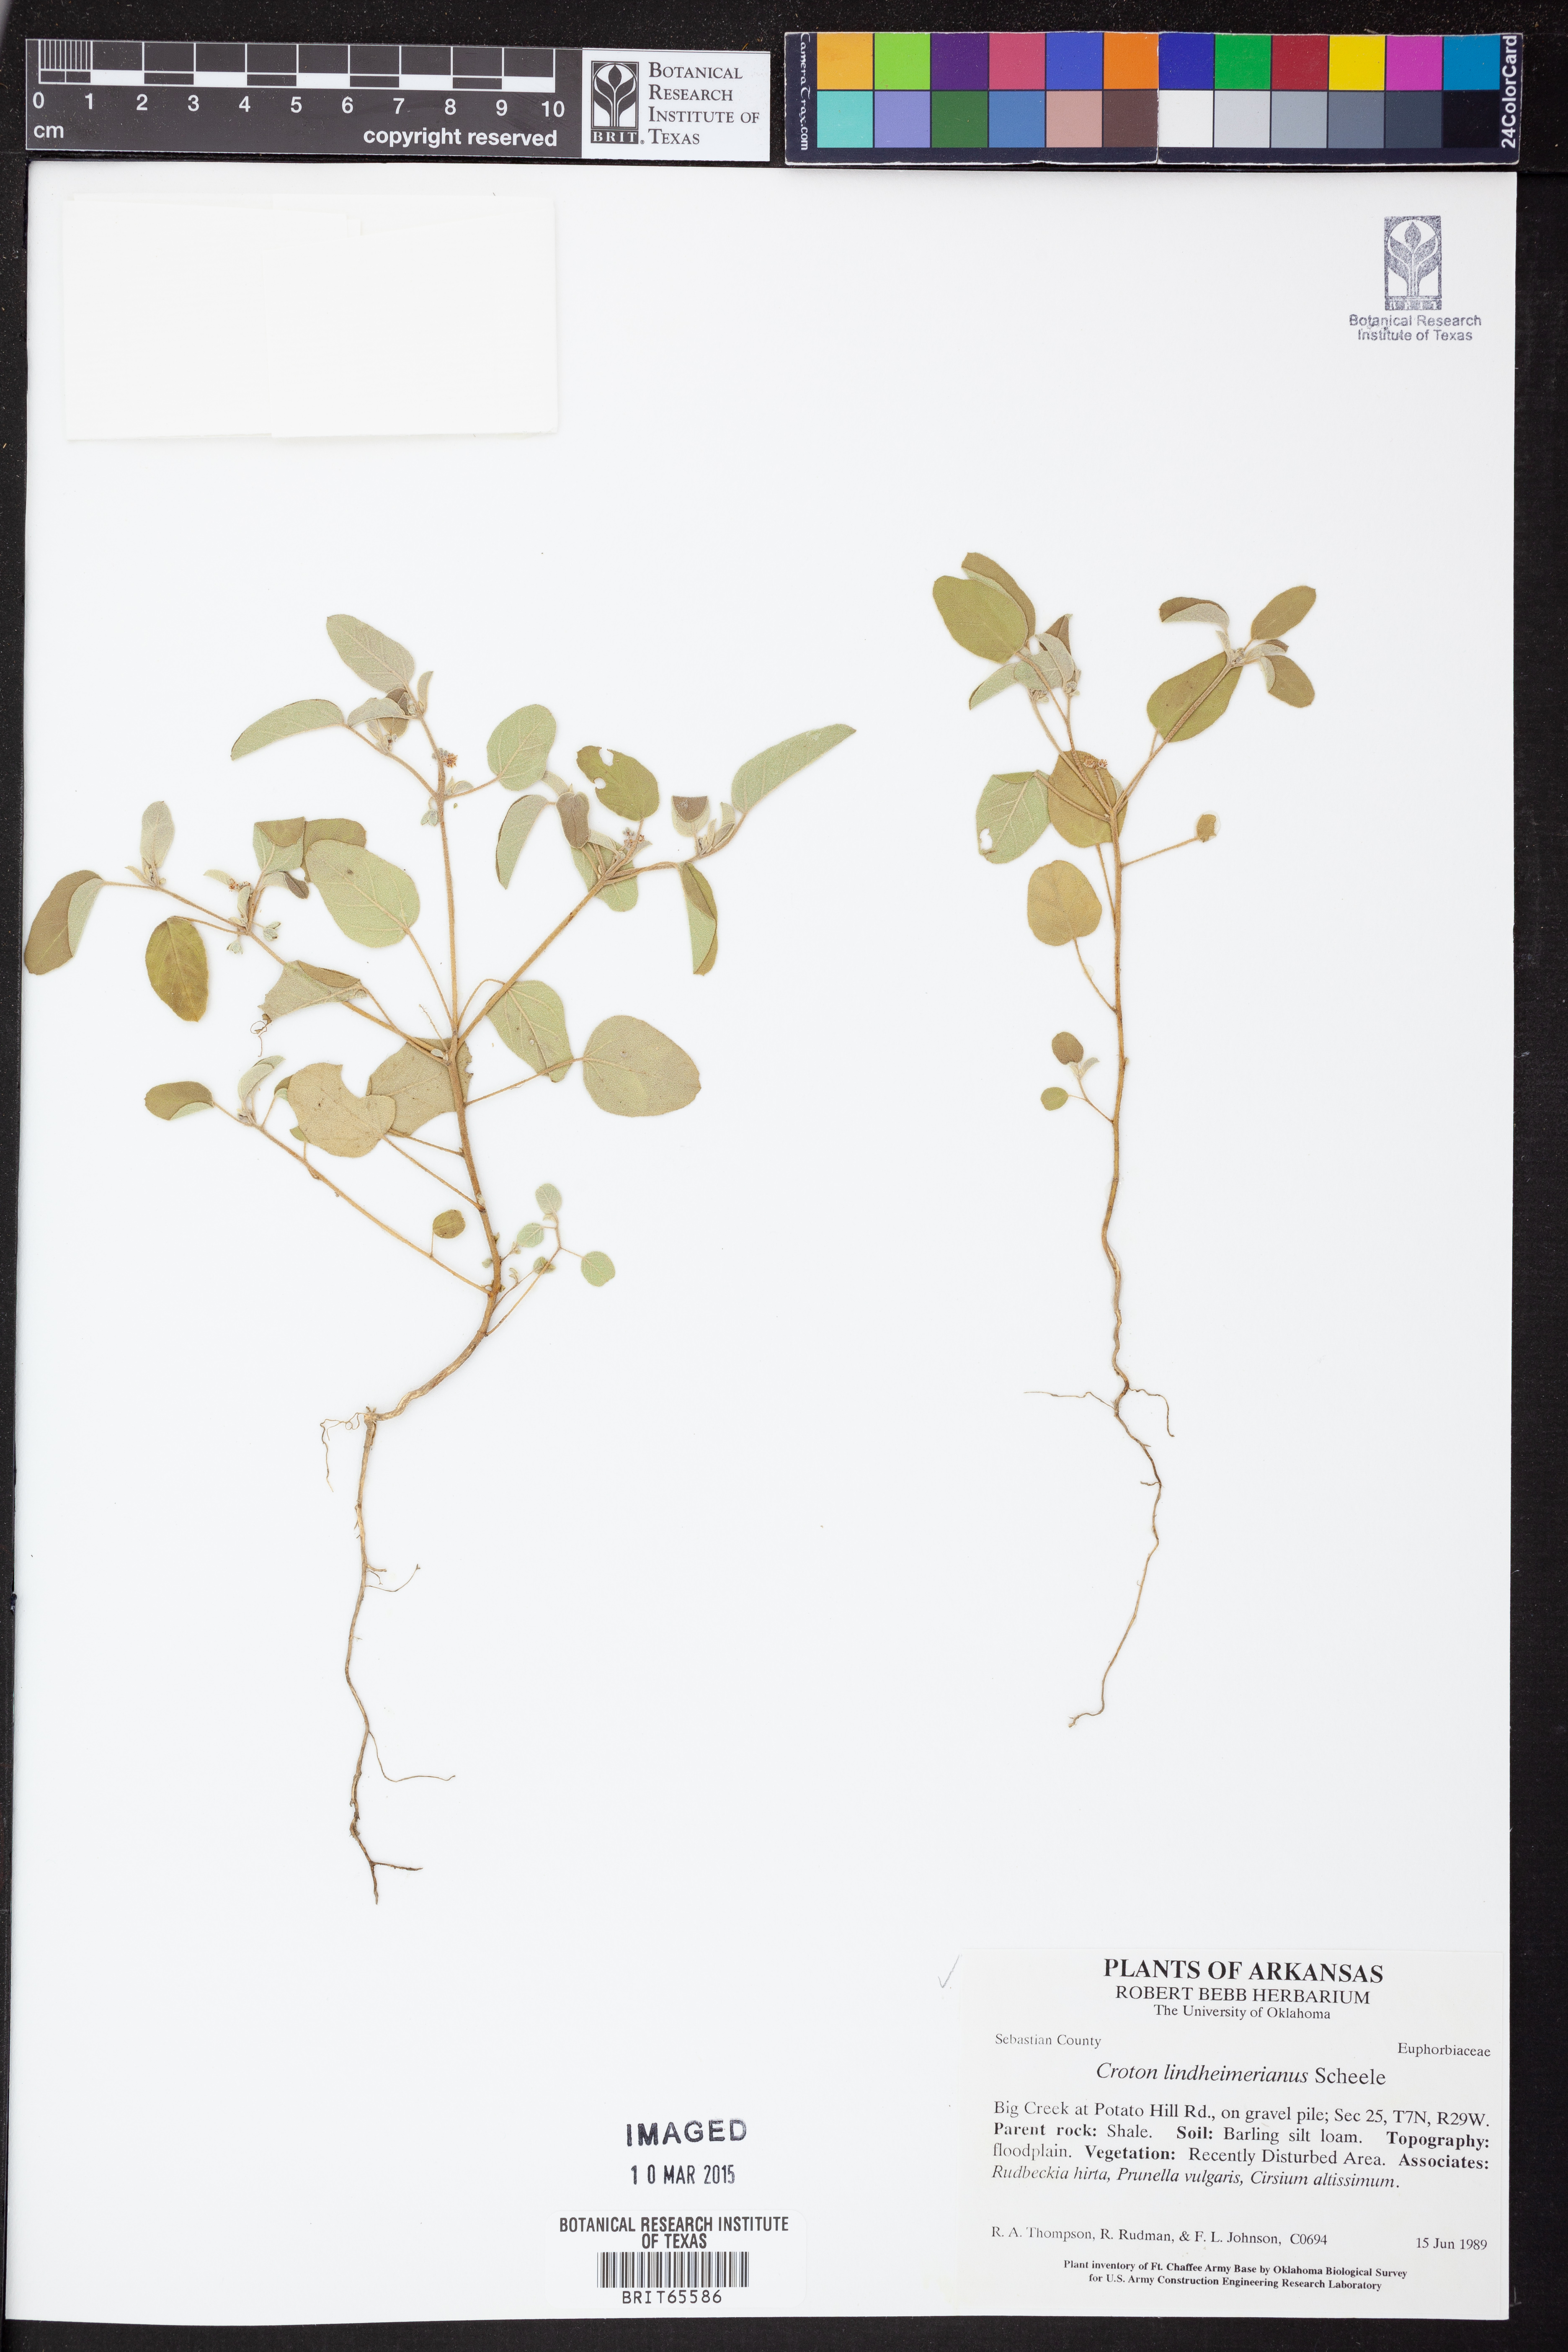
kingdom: Plantae
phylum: Tracheophyta
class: Magnoliopsida
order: Malpighiales
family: Euphorbiaceae
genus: Croton
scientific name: Croton lindheimerianus
